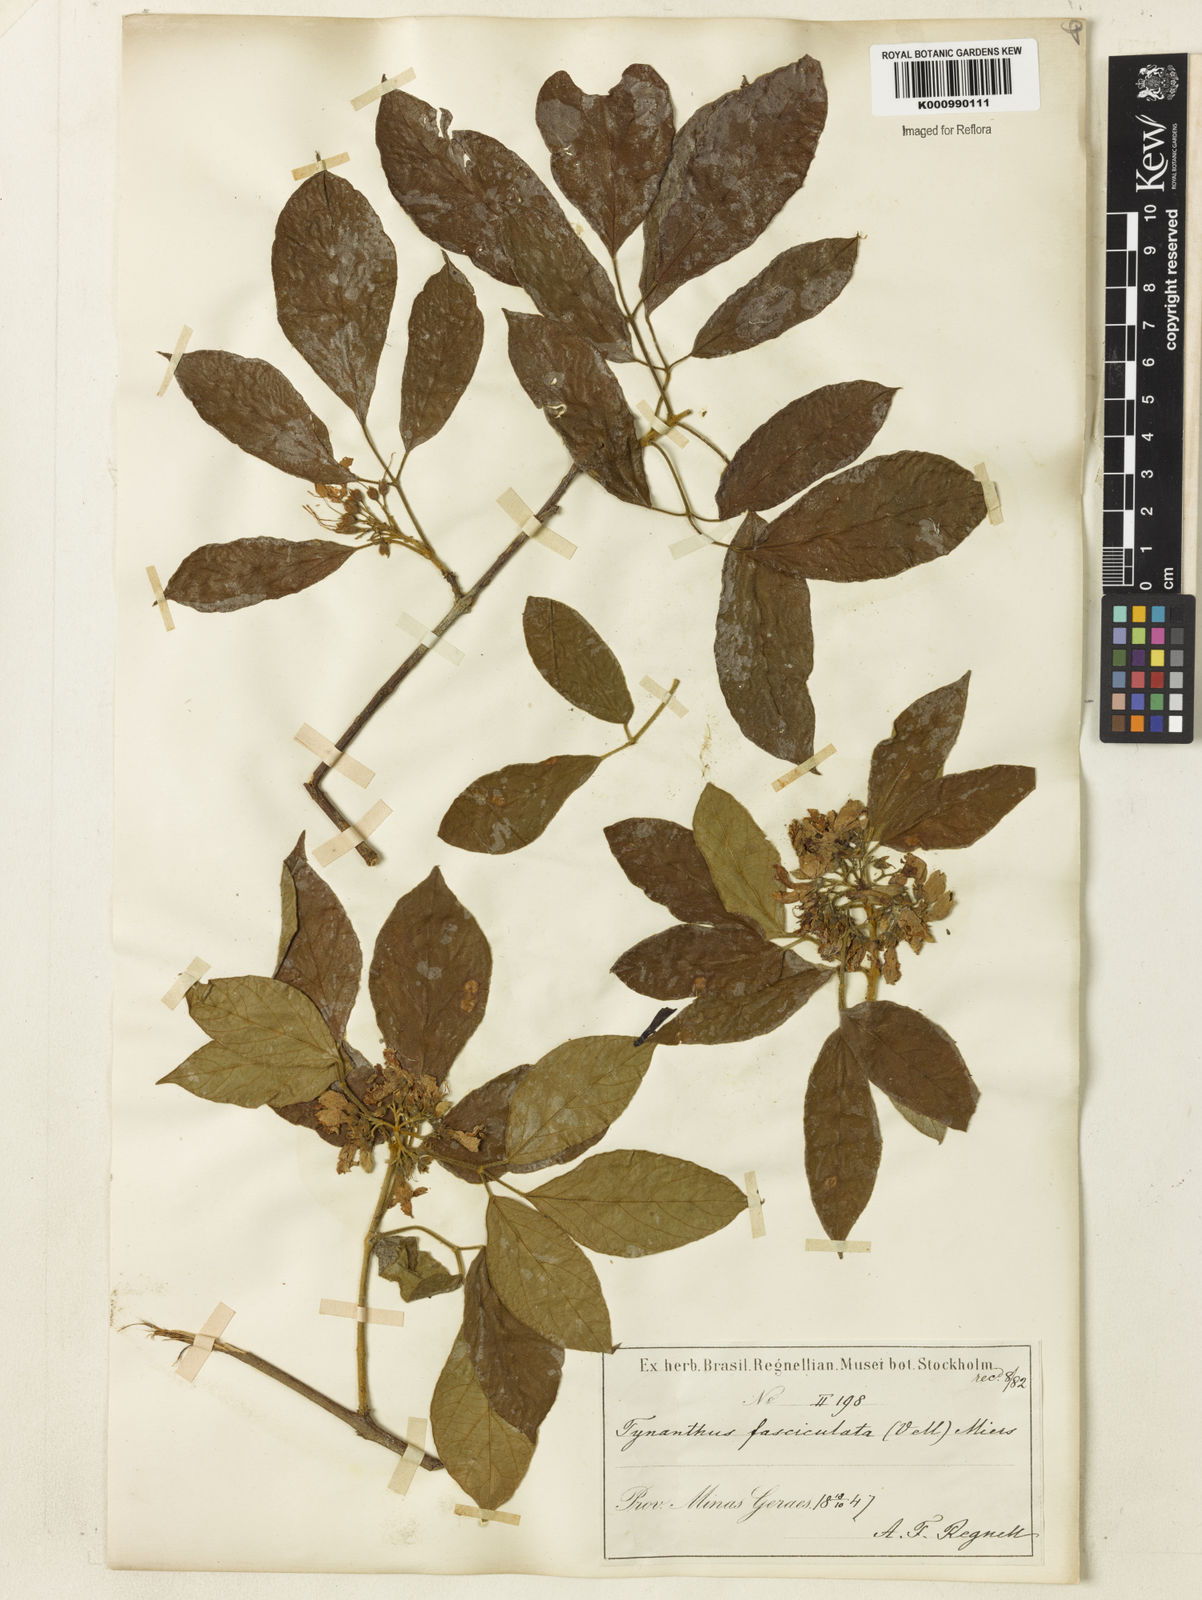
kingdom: Plantae
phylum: Tracheophyta
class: Magnoliopsida
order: Lamiales
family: Bignoniaceae
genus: Tynanthus
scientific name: Tynanthus fasciculatus
